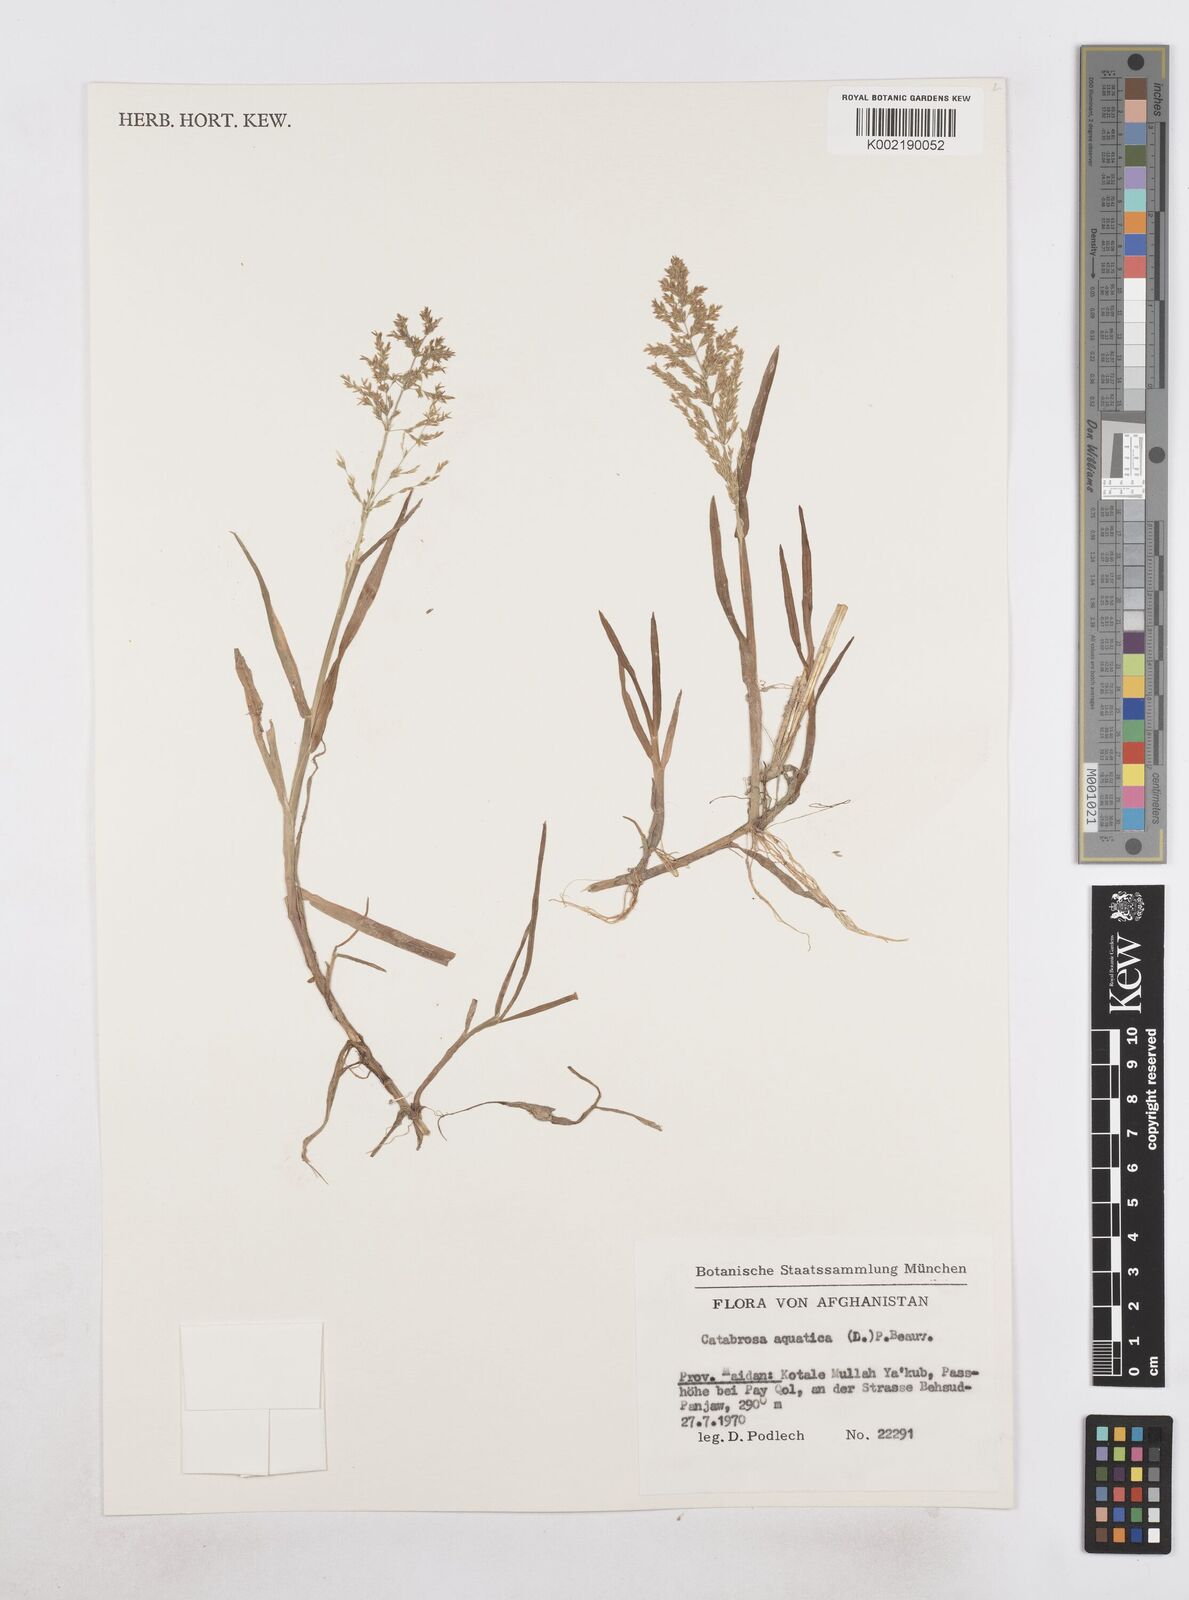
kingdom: Plantae
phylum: Tracheophyta
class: Liliopsida
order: Poales
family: Poaceae
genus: Catabrosa
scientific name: Catabrosa aquatica
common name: Whorl-grass
